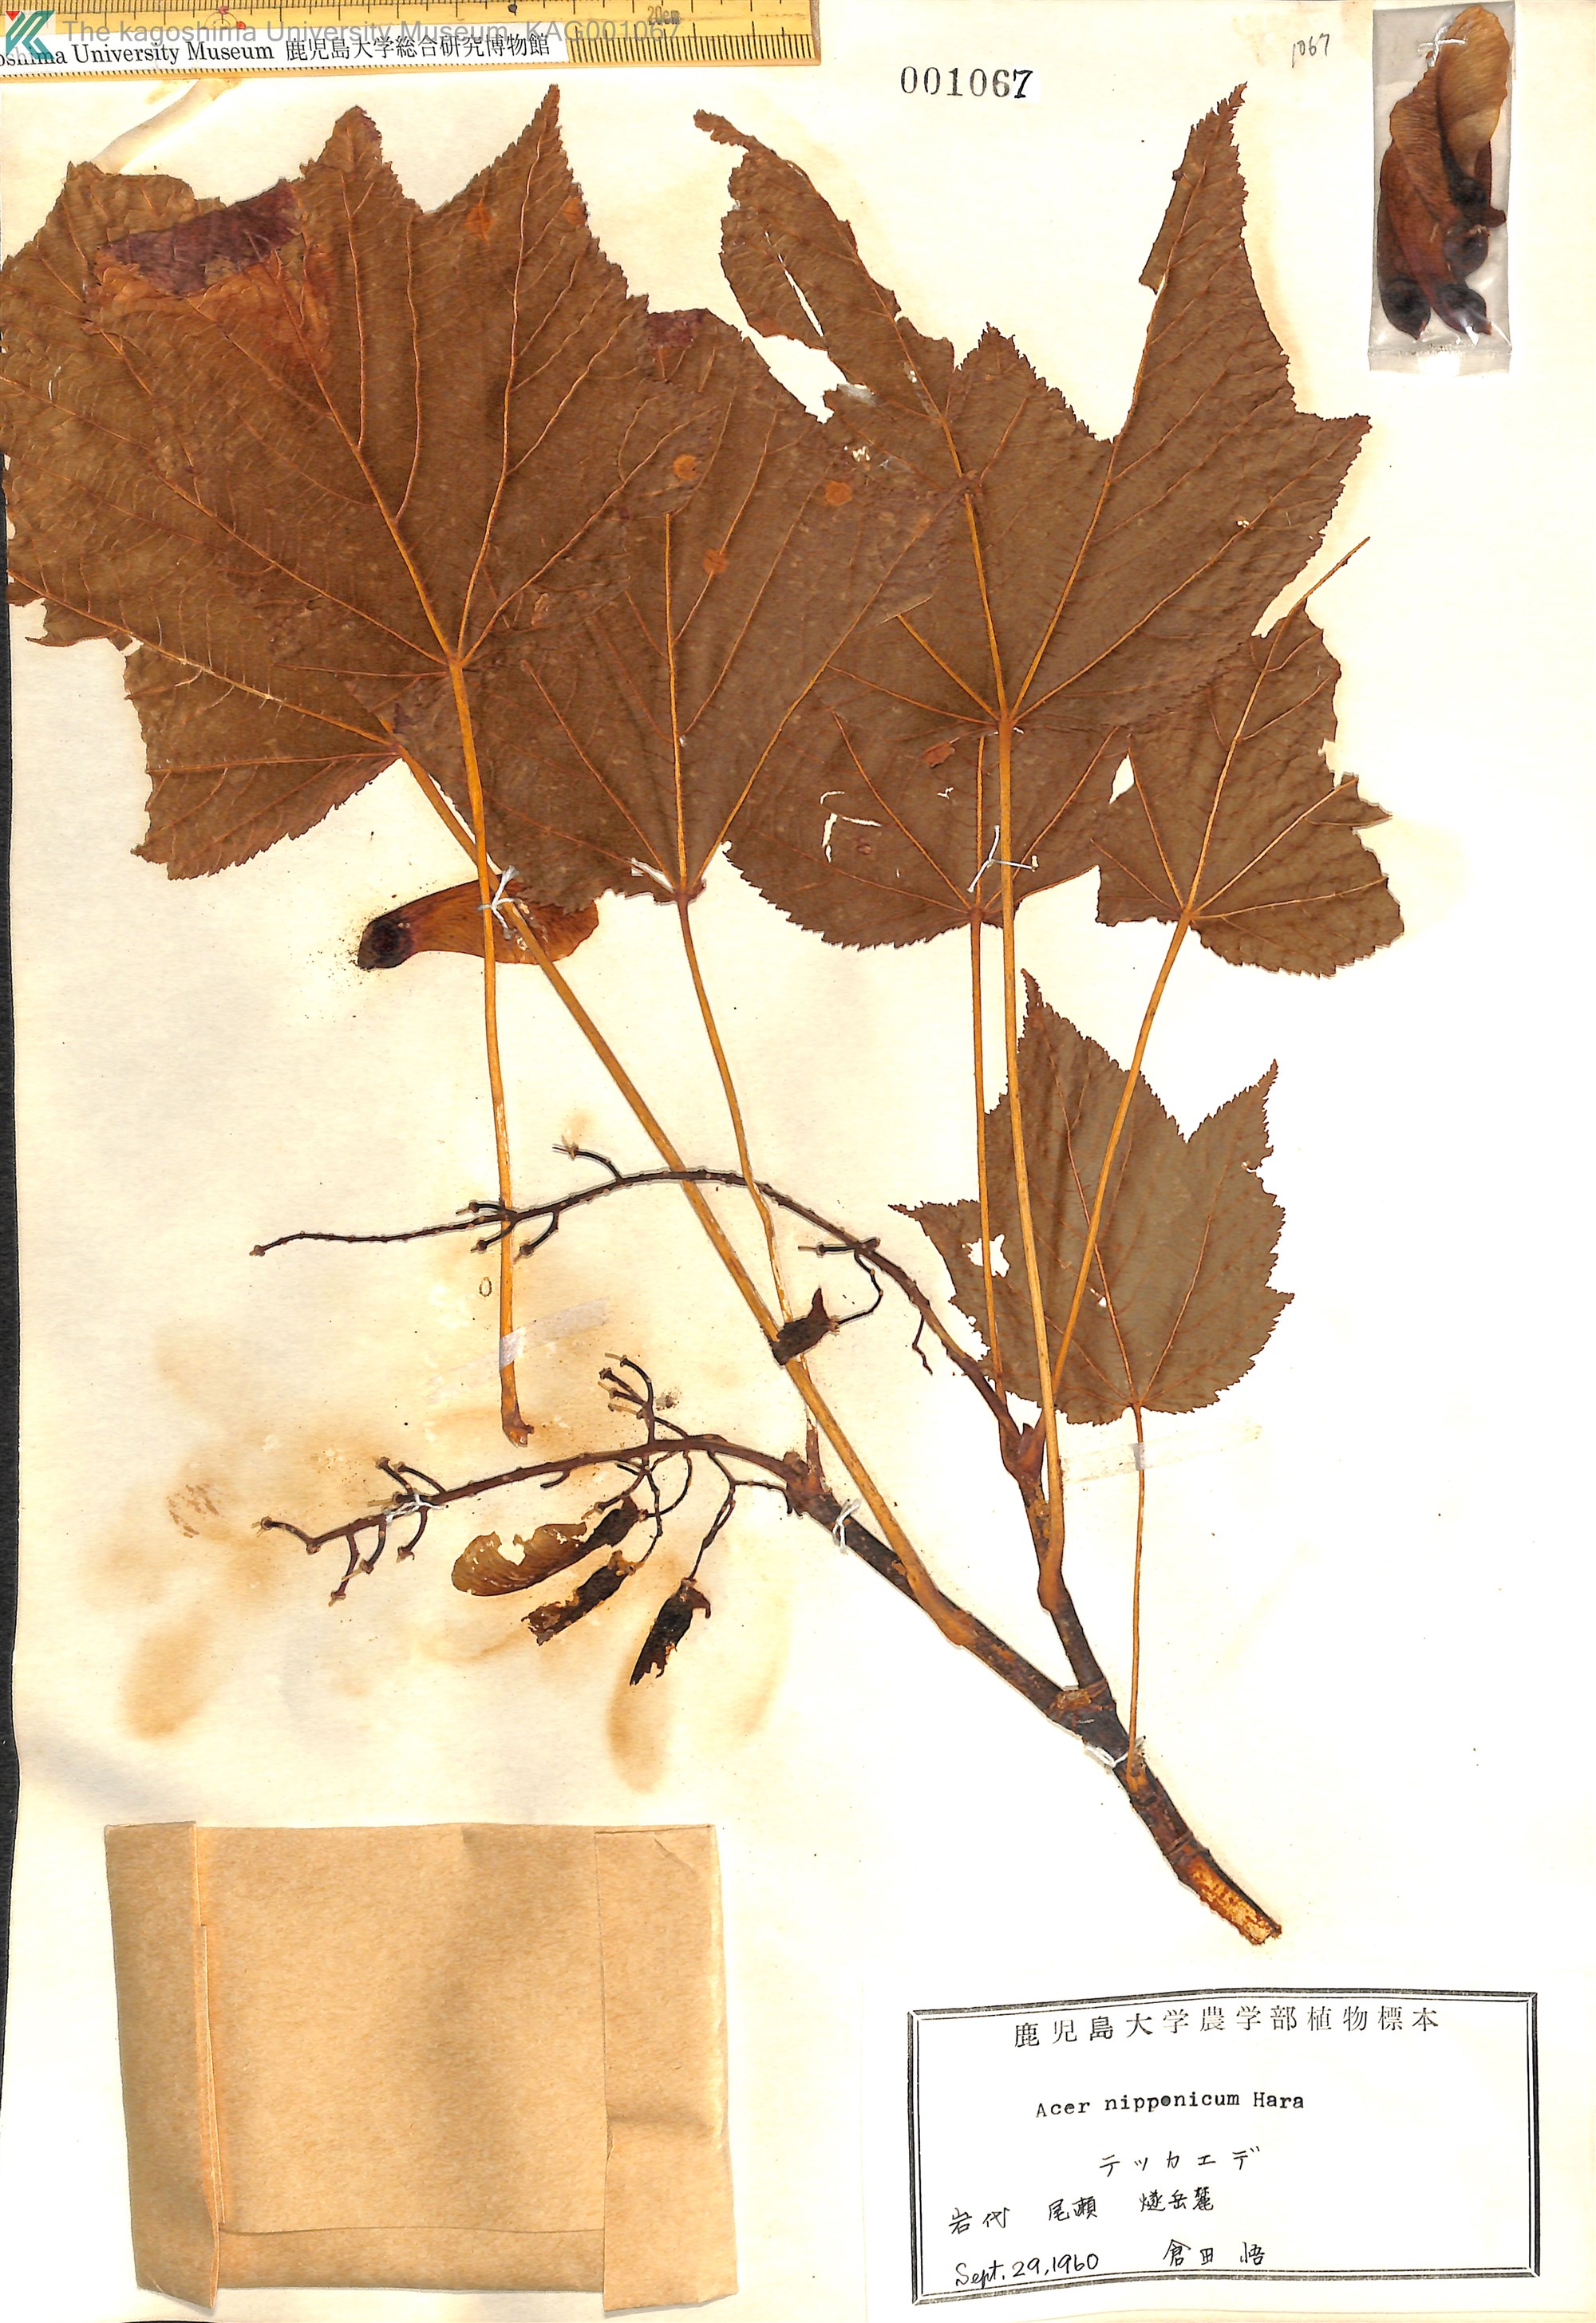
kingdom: Plantae
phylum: Tracheophyta
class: Magnoliopsida
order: Sapindales
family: Sapindaceae
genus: Acer
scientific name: Acer nipponicum
